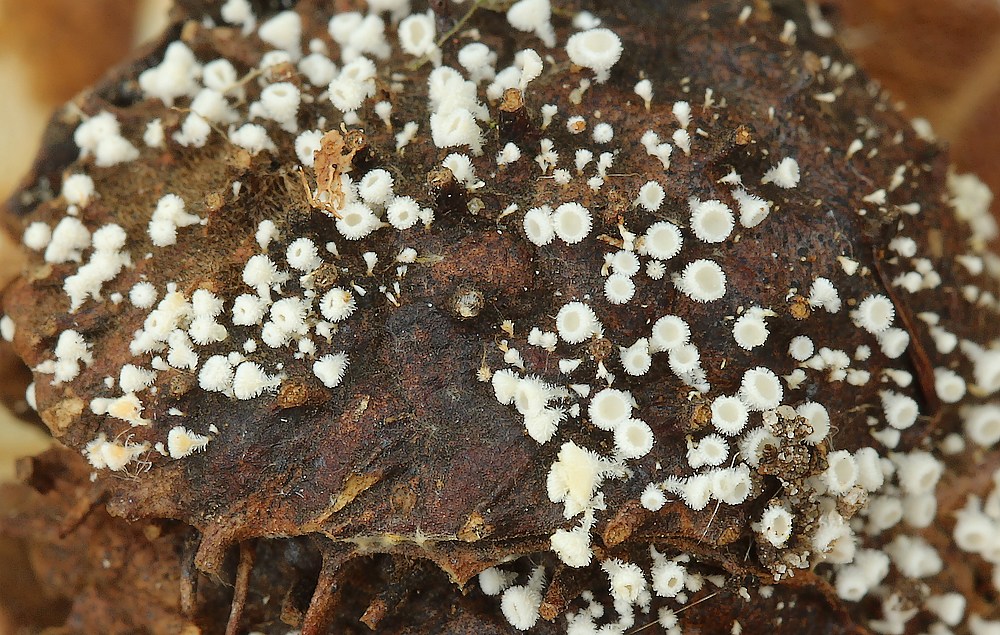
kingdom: Fungi
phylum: Ascomycota
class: Leotiomycetes
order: Helotiales
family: Lachnaceae
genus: Lachnum
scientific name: Lachnum virgineum
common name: jomfru-frynseskive
